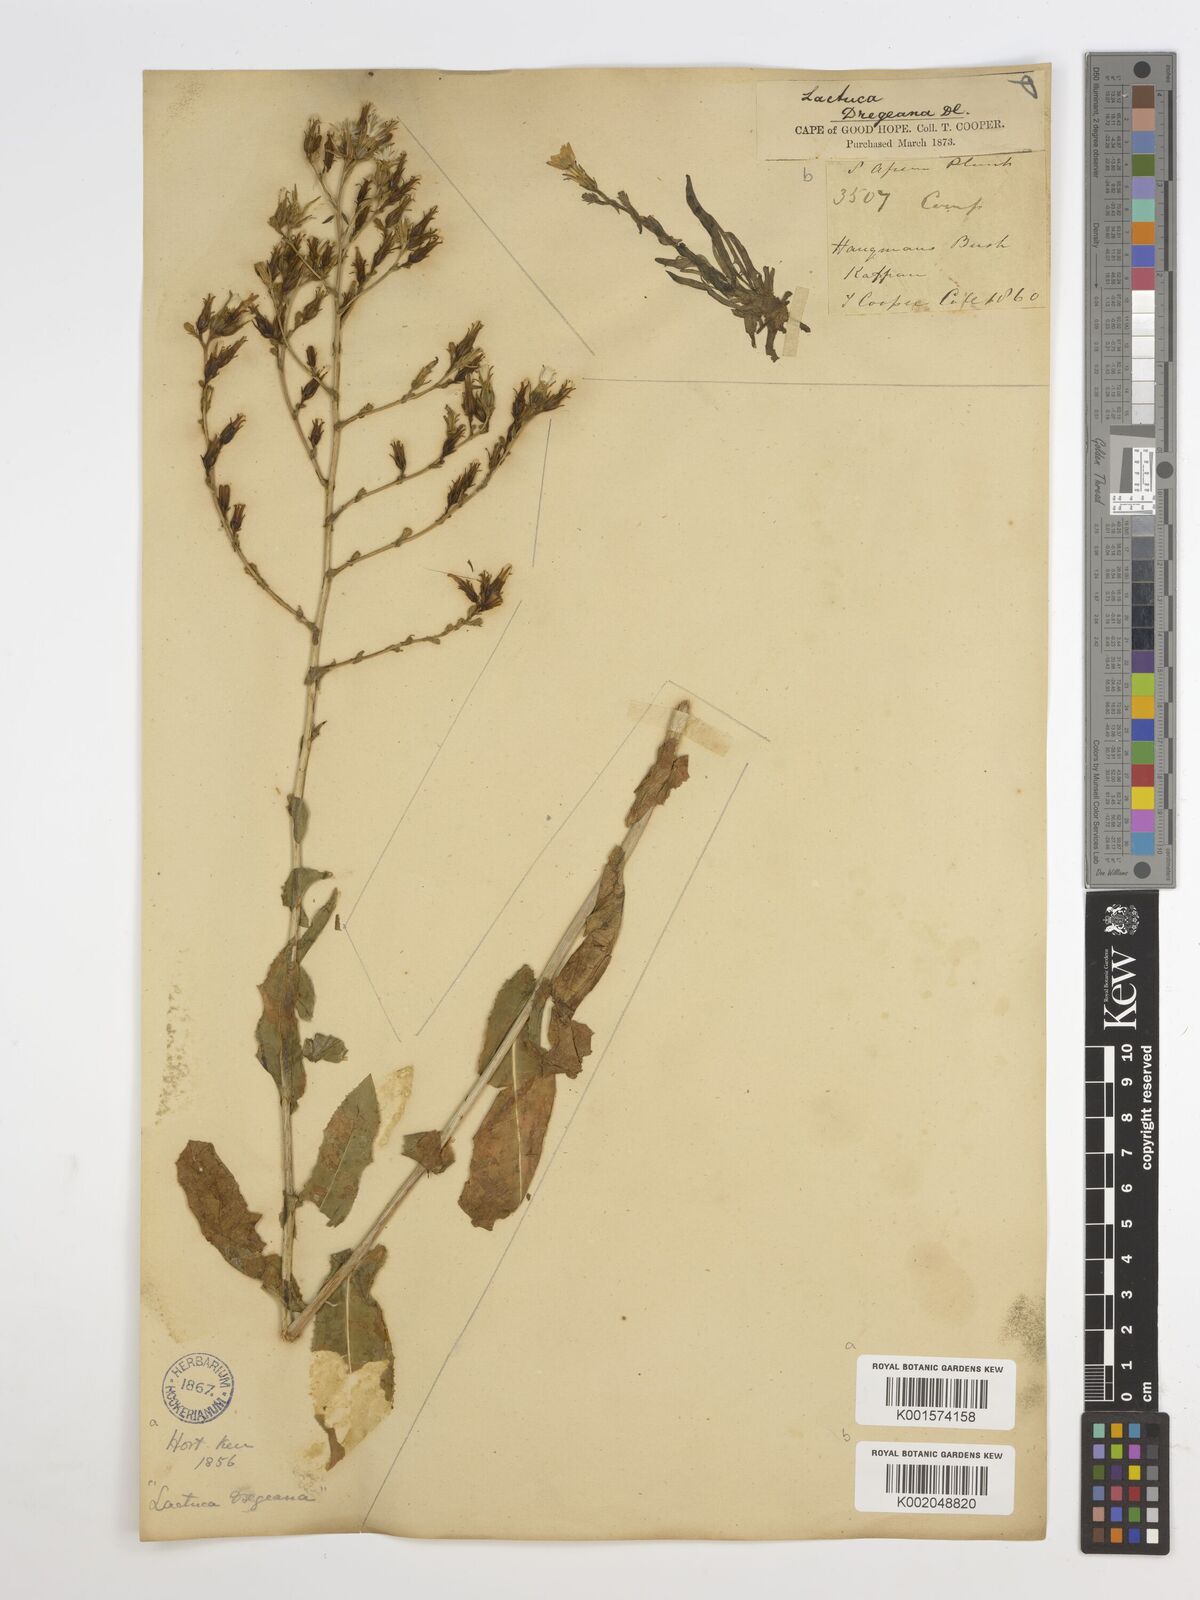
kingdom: Plantae
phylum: Tracheophyta
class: Magnoliopsida
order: Asterales
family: Asteraceae
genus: Lactuca
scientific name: Lactuca dregeana
